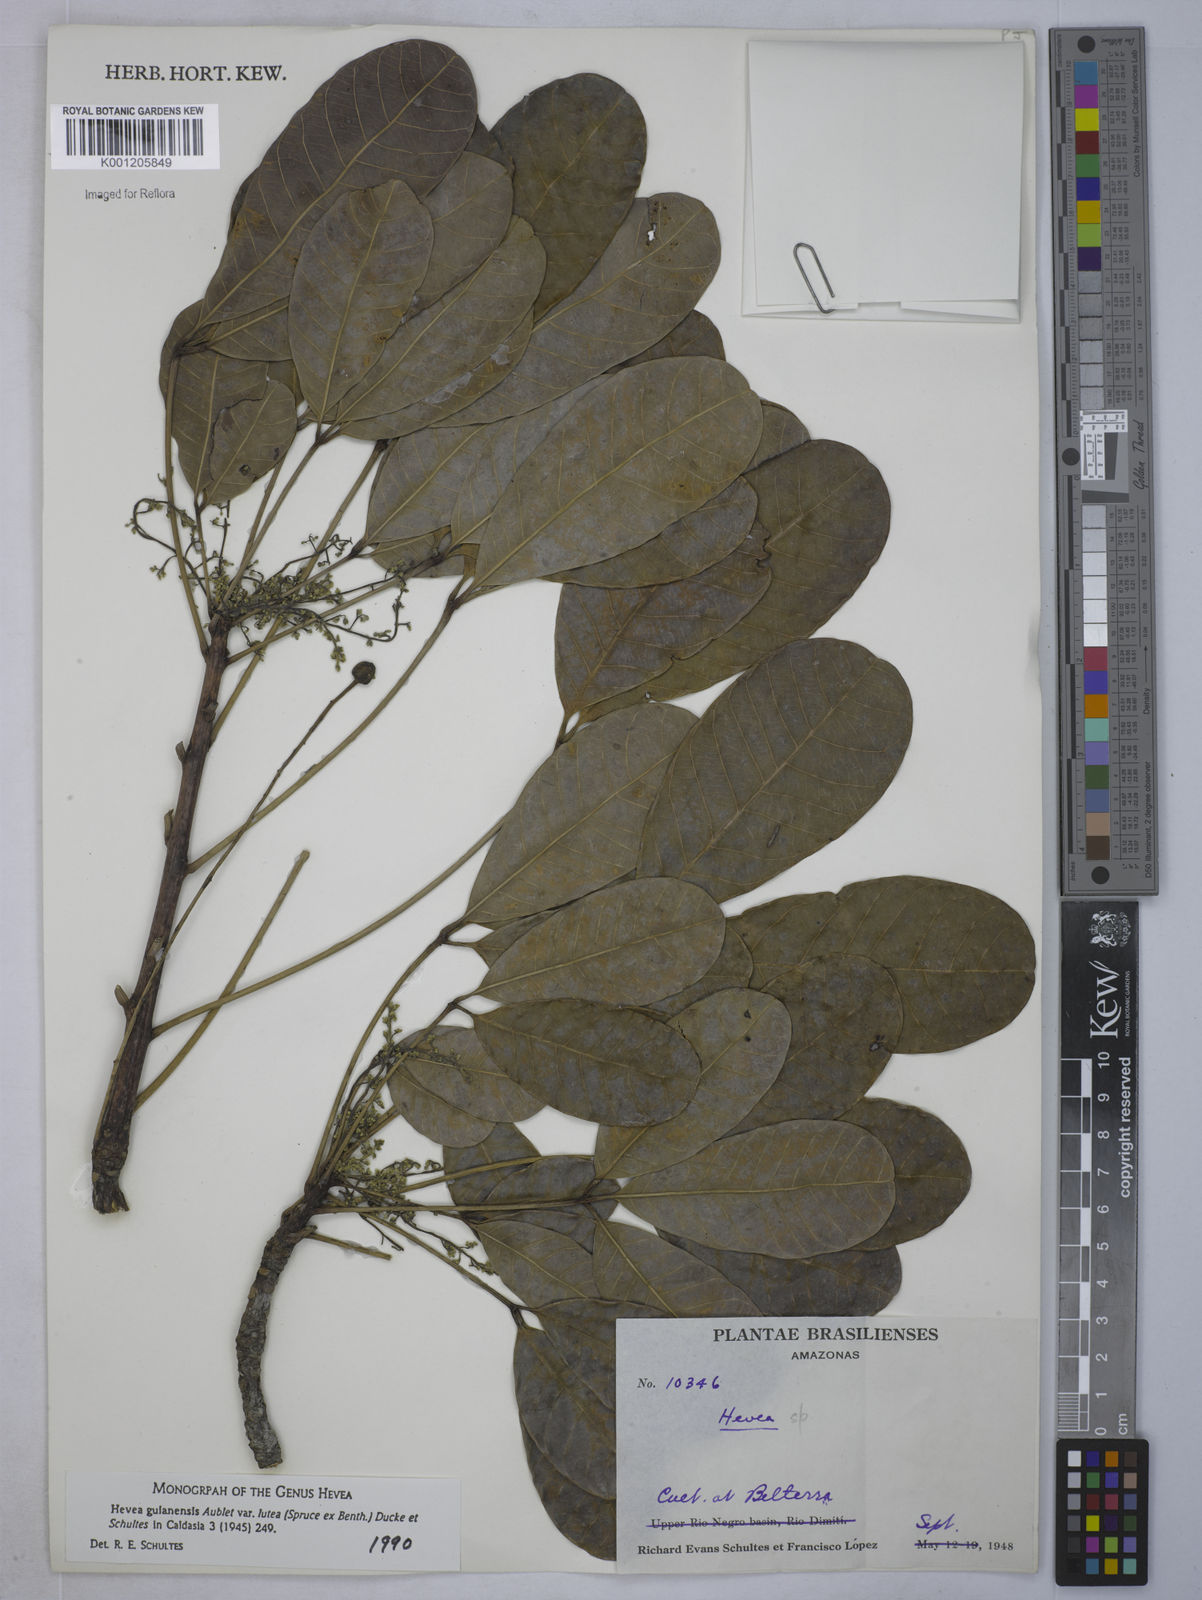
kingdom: Plantae
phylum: Tracheophyta
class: Magnoliopsida
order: Malpighiales
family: Euphorbiaceae
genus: Hevea
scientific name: Hevea guianensis
